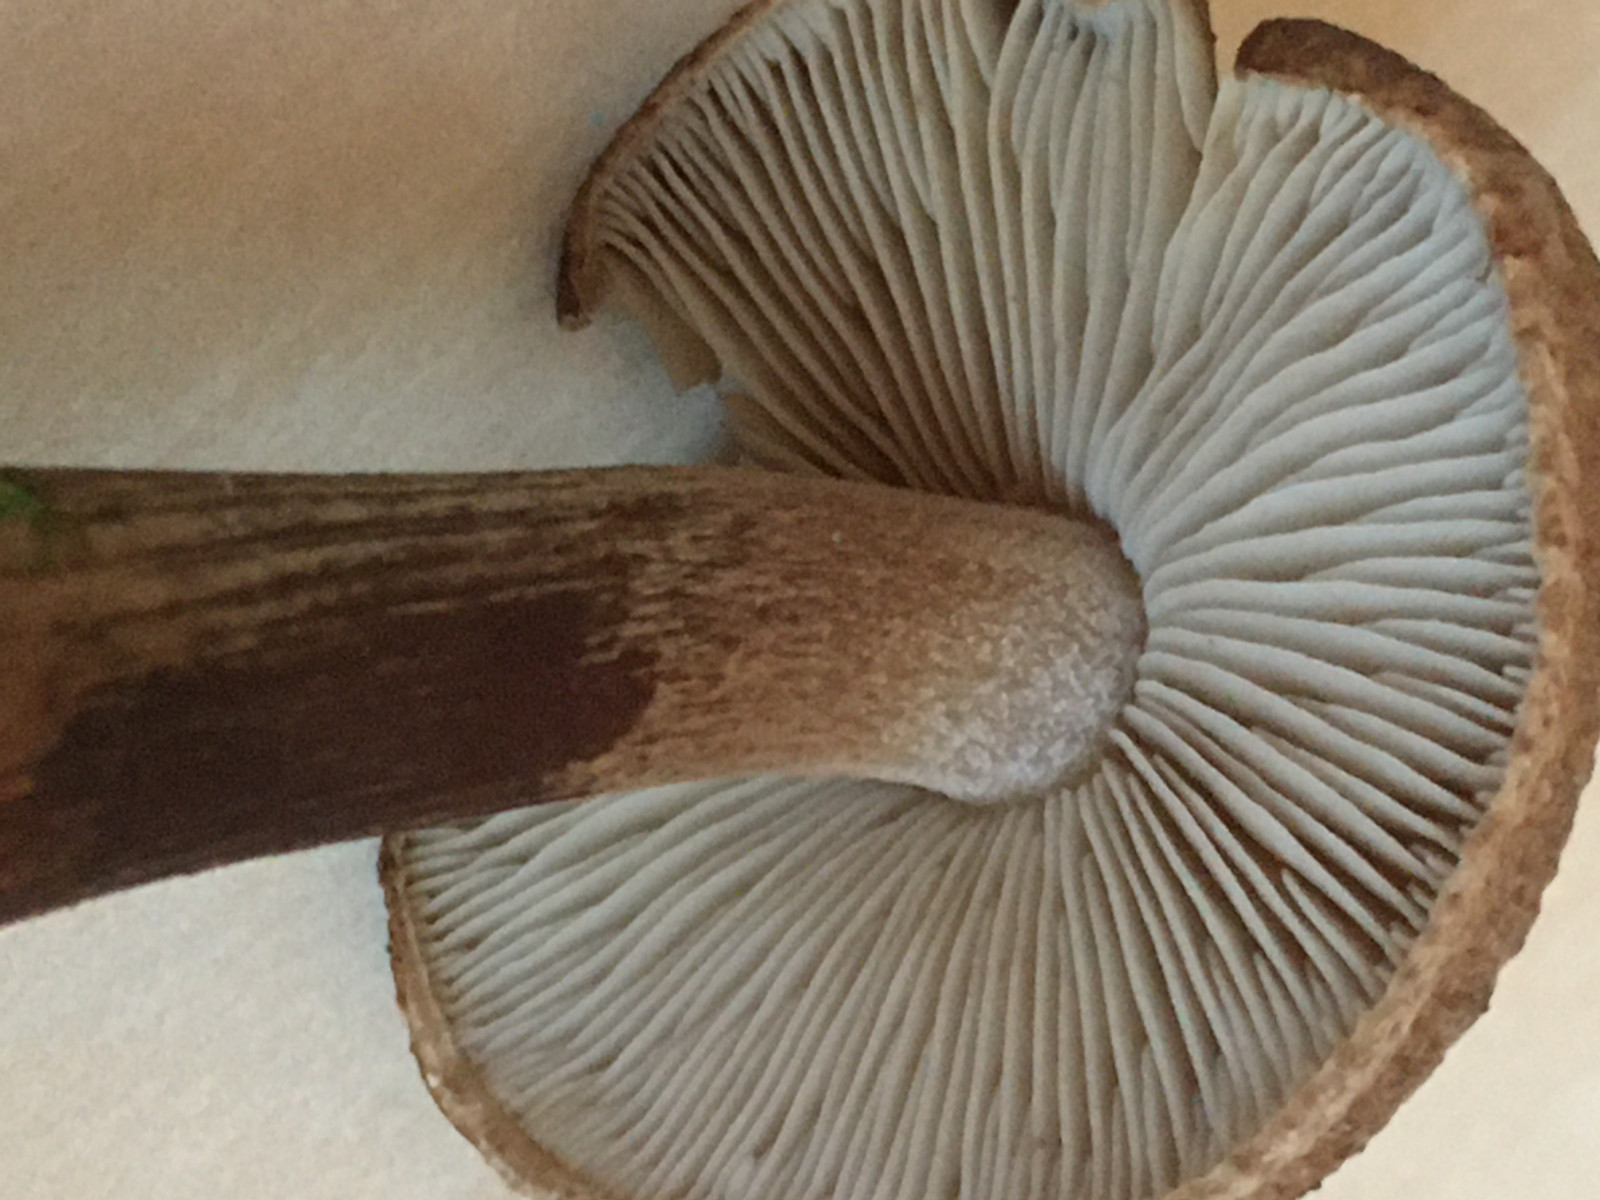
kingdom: Fungi
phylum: Basidiomycota
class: Agaricomycetes
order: Agaricales
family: Inocybaceae
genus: Inocybe
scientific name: Inocybe
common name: trævlhat
